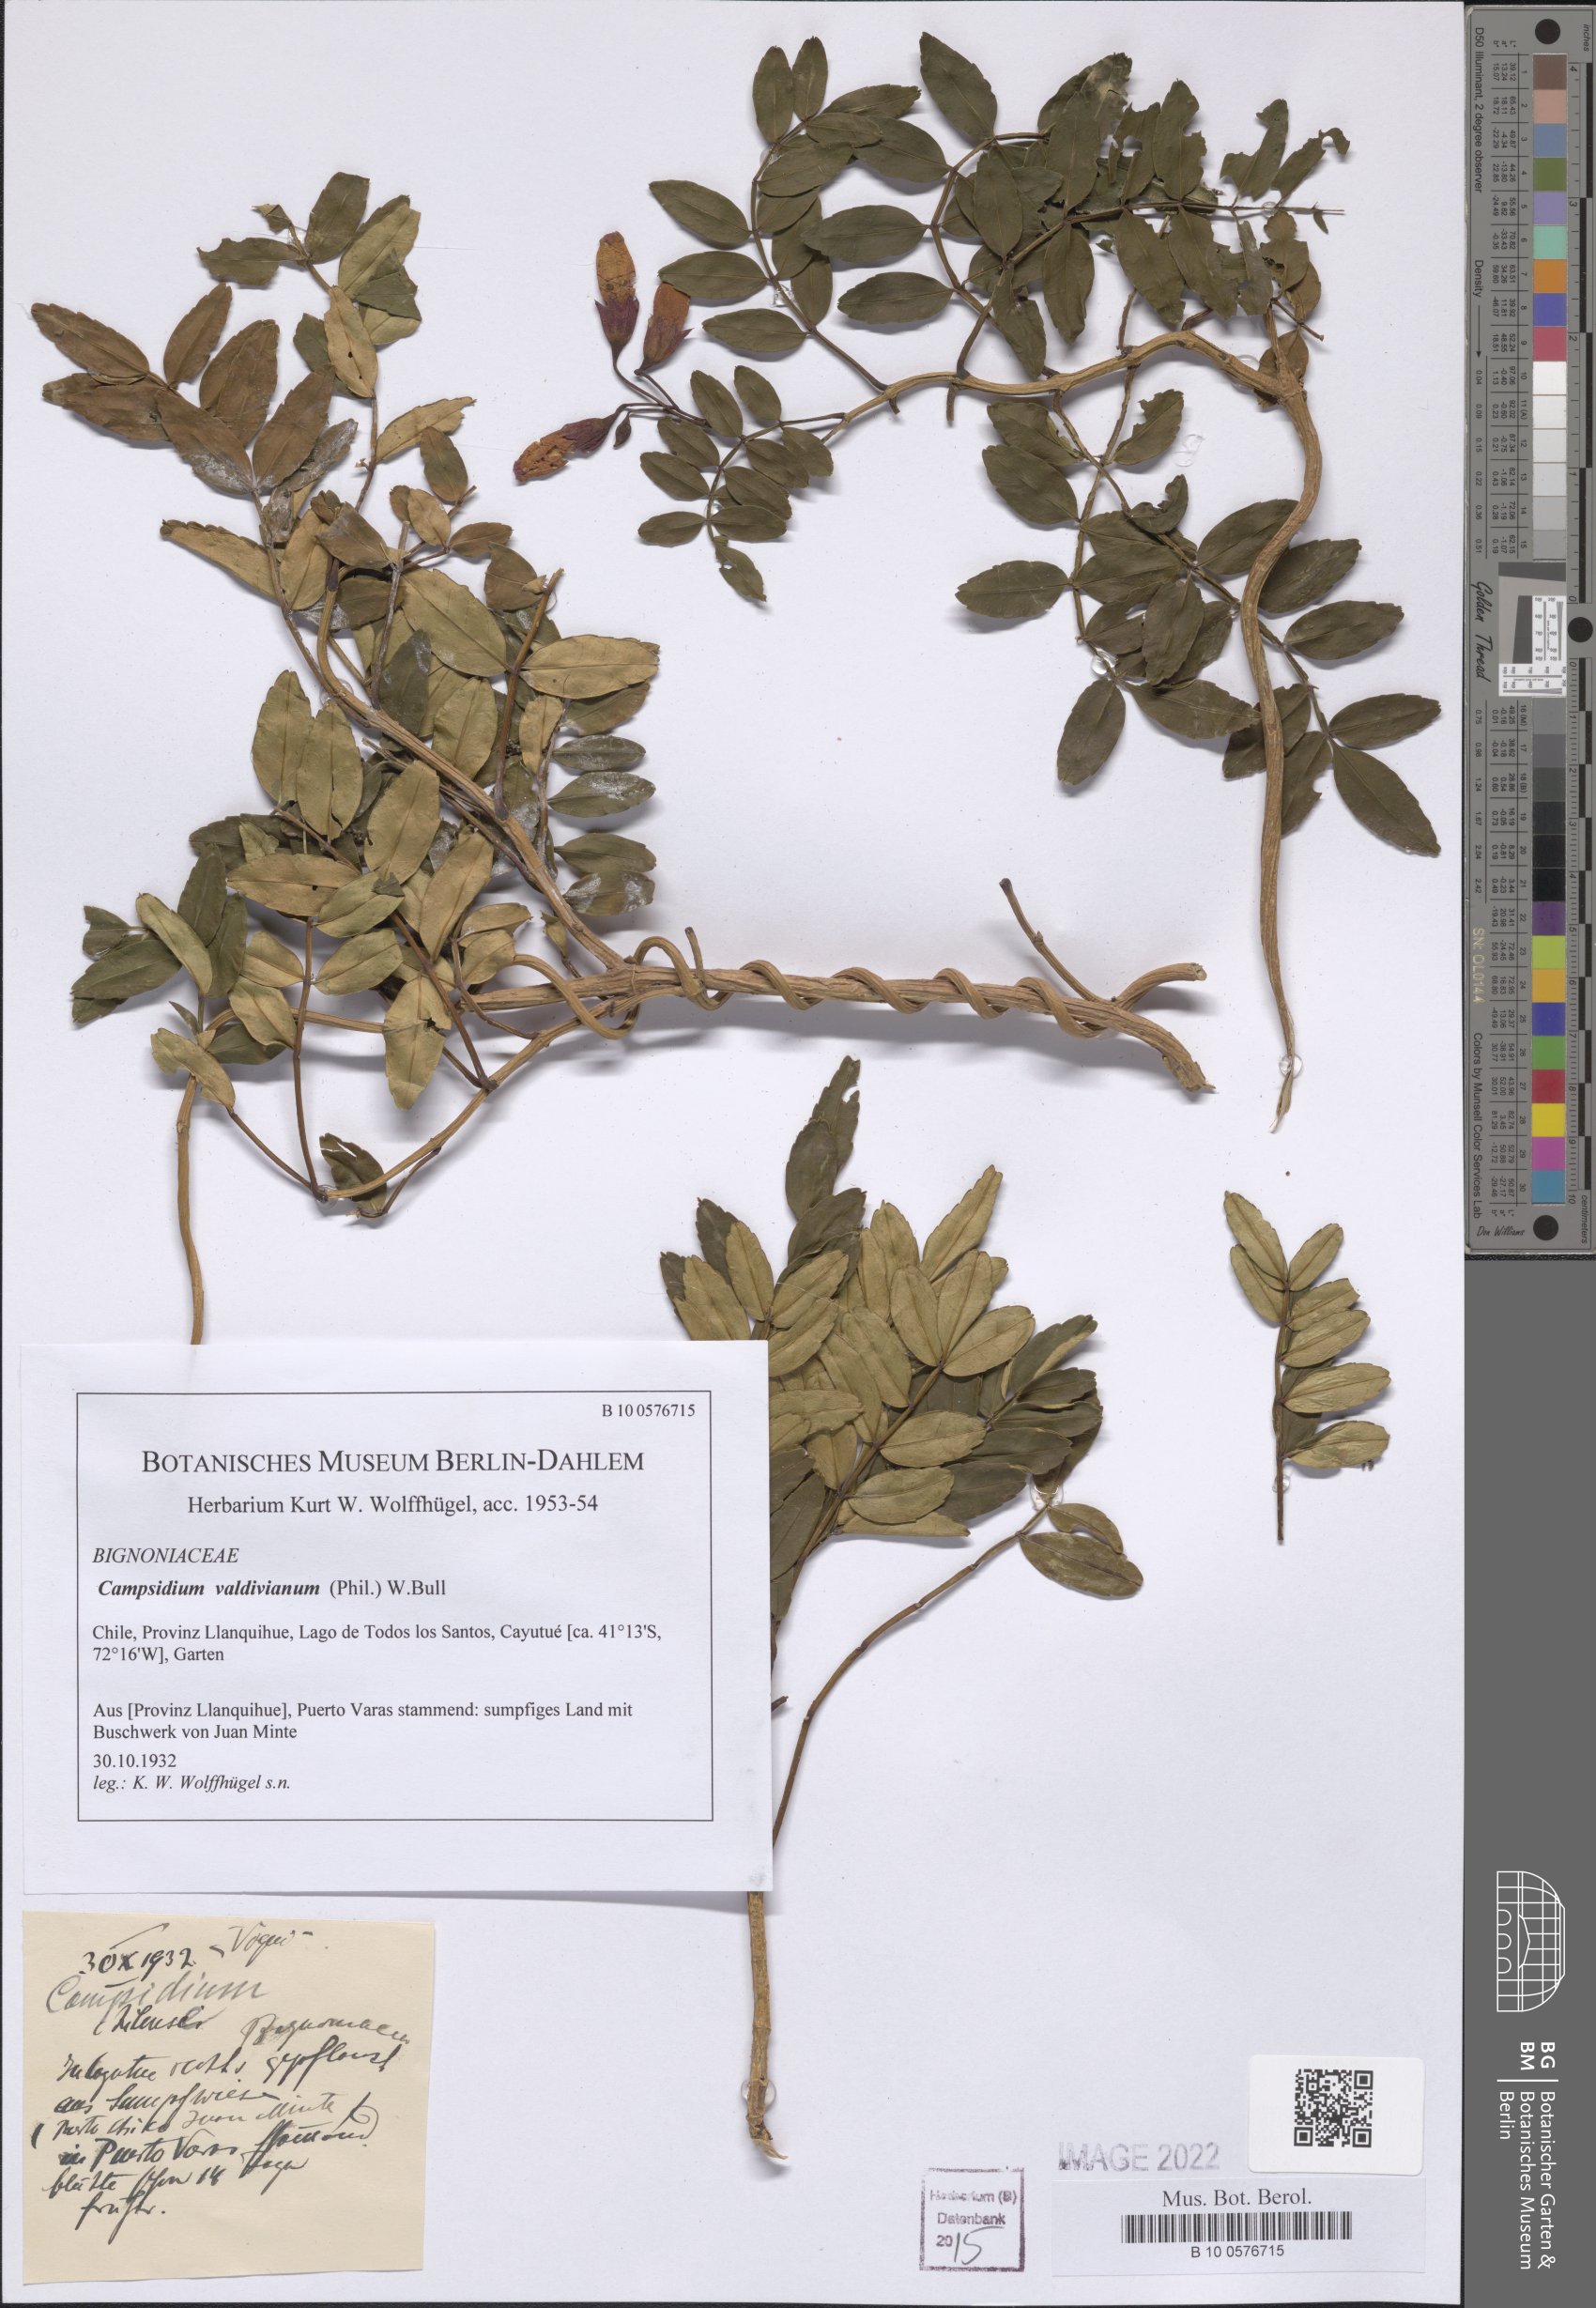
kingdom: Plantae
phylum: Tracheophyta
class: Magnoliopsida
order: Lamiales
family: Bignoniaceae
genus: Campsidium
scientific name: Campsidium valdivianum
